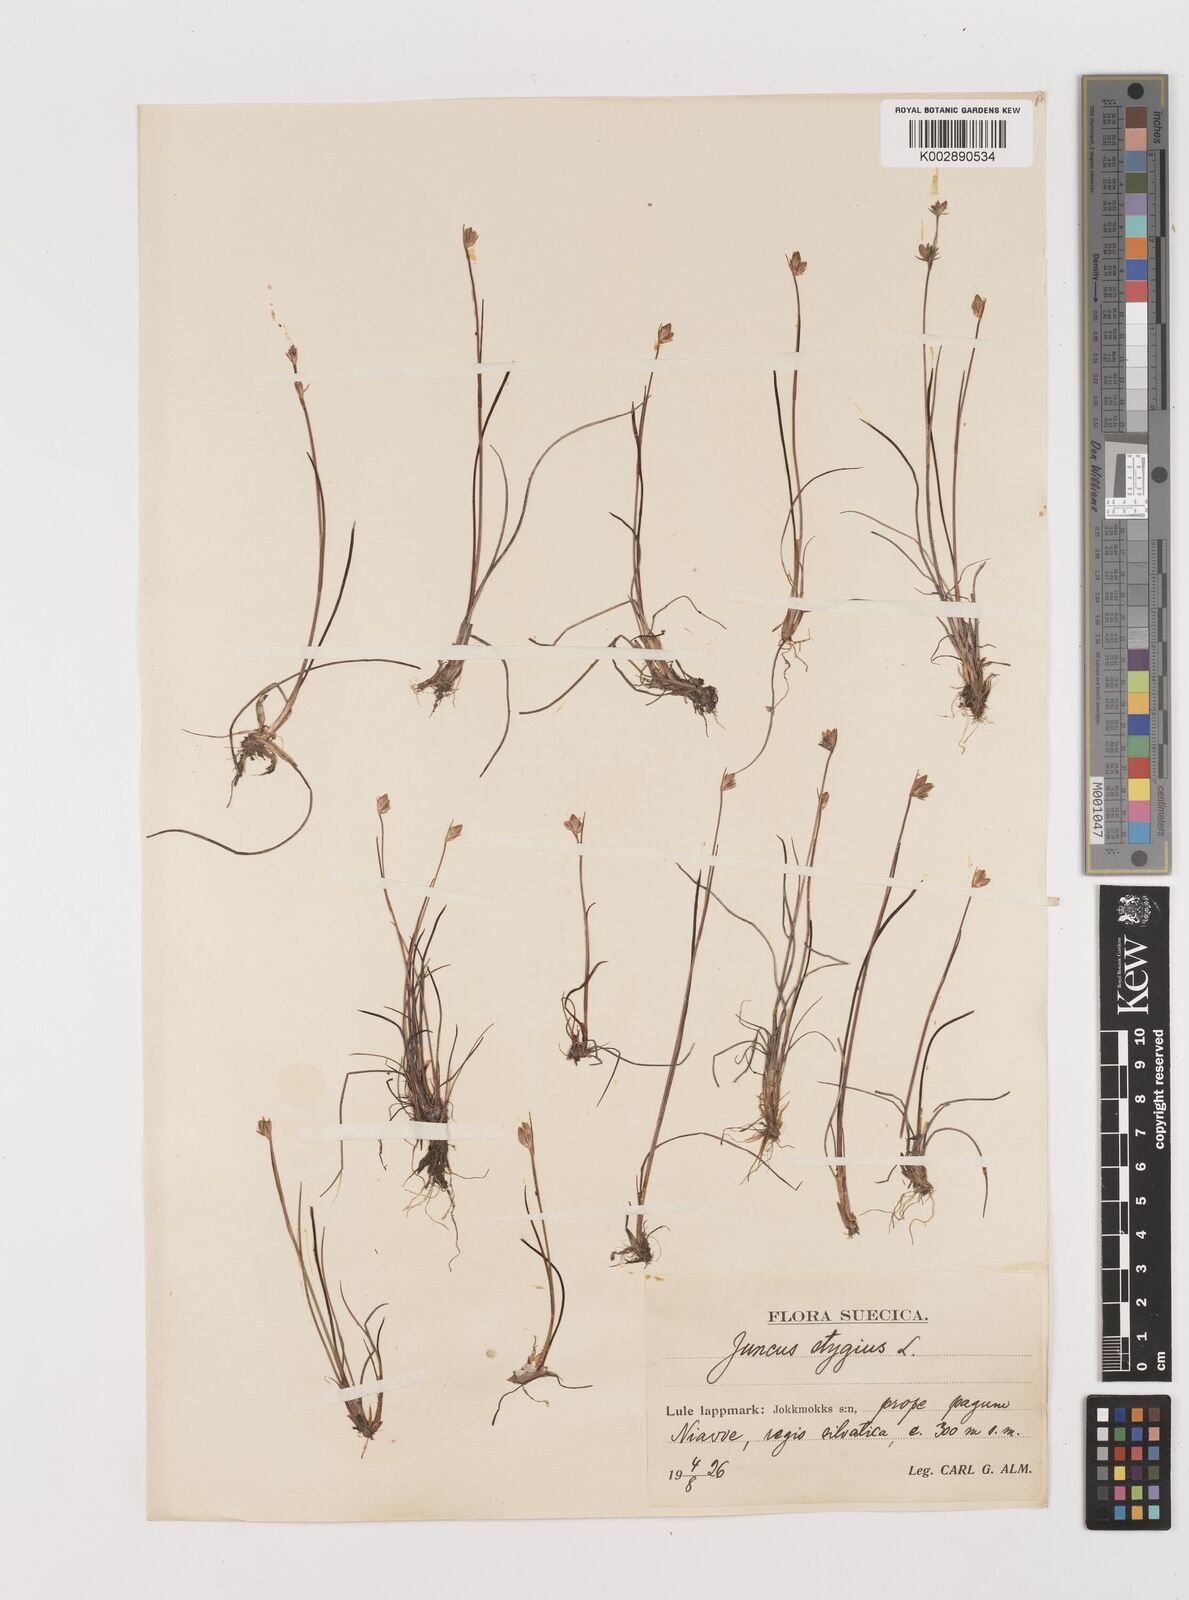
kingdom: Plantae
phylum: Tracheophyta
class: Liliopsida
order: Poales
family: Juncaceae
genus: Juncus
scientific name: Juncus stygius
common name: Bog rush
